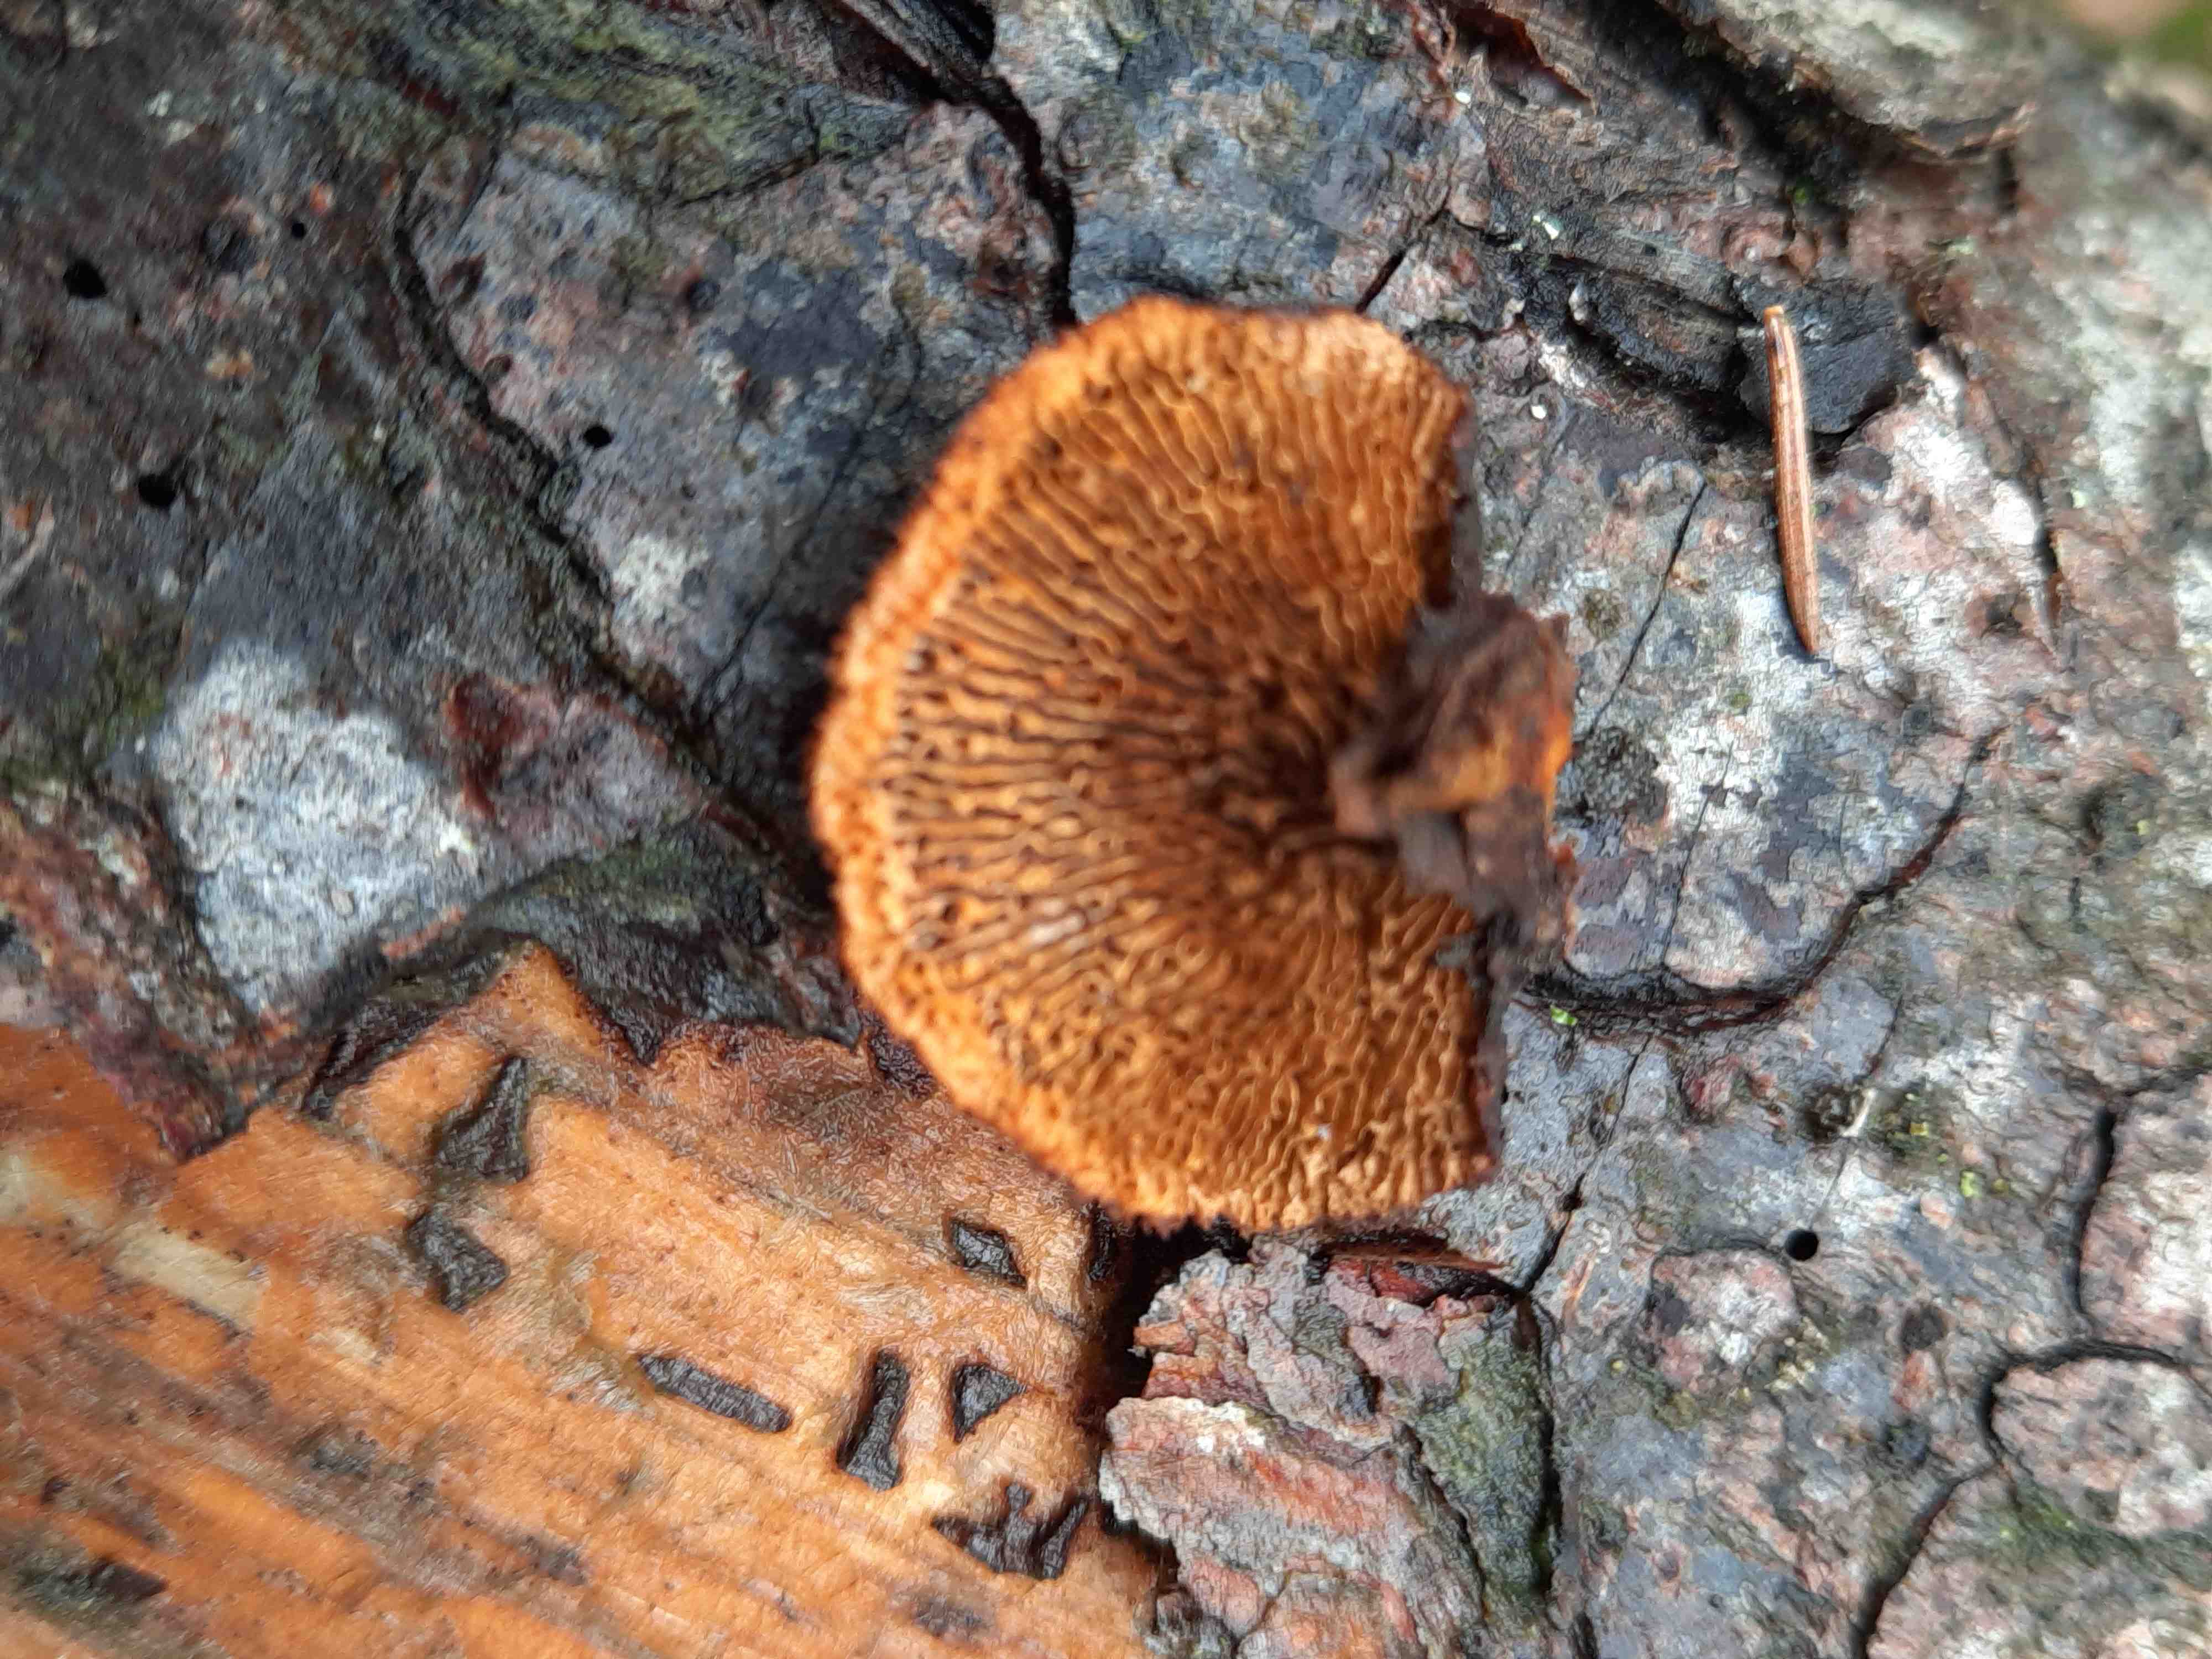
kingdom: Fungi
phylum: Basidiomycota
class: Agaricomycetes
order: Gloeophyllales
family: Gloeophyllaceae
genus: Gloeophyllum
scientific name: Gloeophyllum sepiarium
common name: fyrre-korkhat
